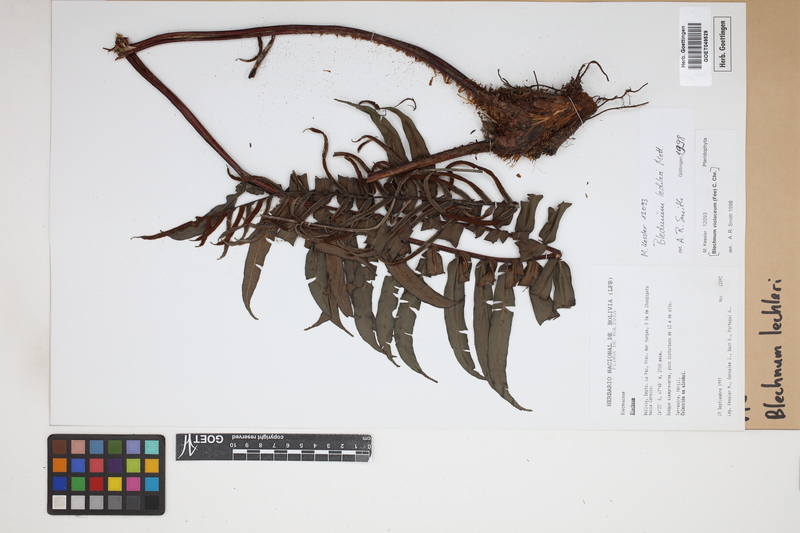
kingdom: Plantae
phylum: Tracheophyta
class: Polypodiopsida
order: Polypodiales
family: Blechnaceae
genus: Parablechnum
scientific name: Parablechnum lechleri
